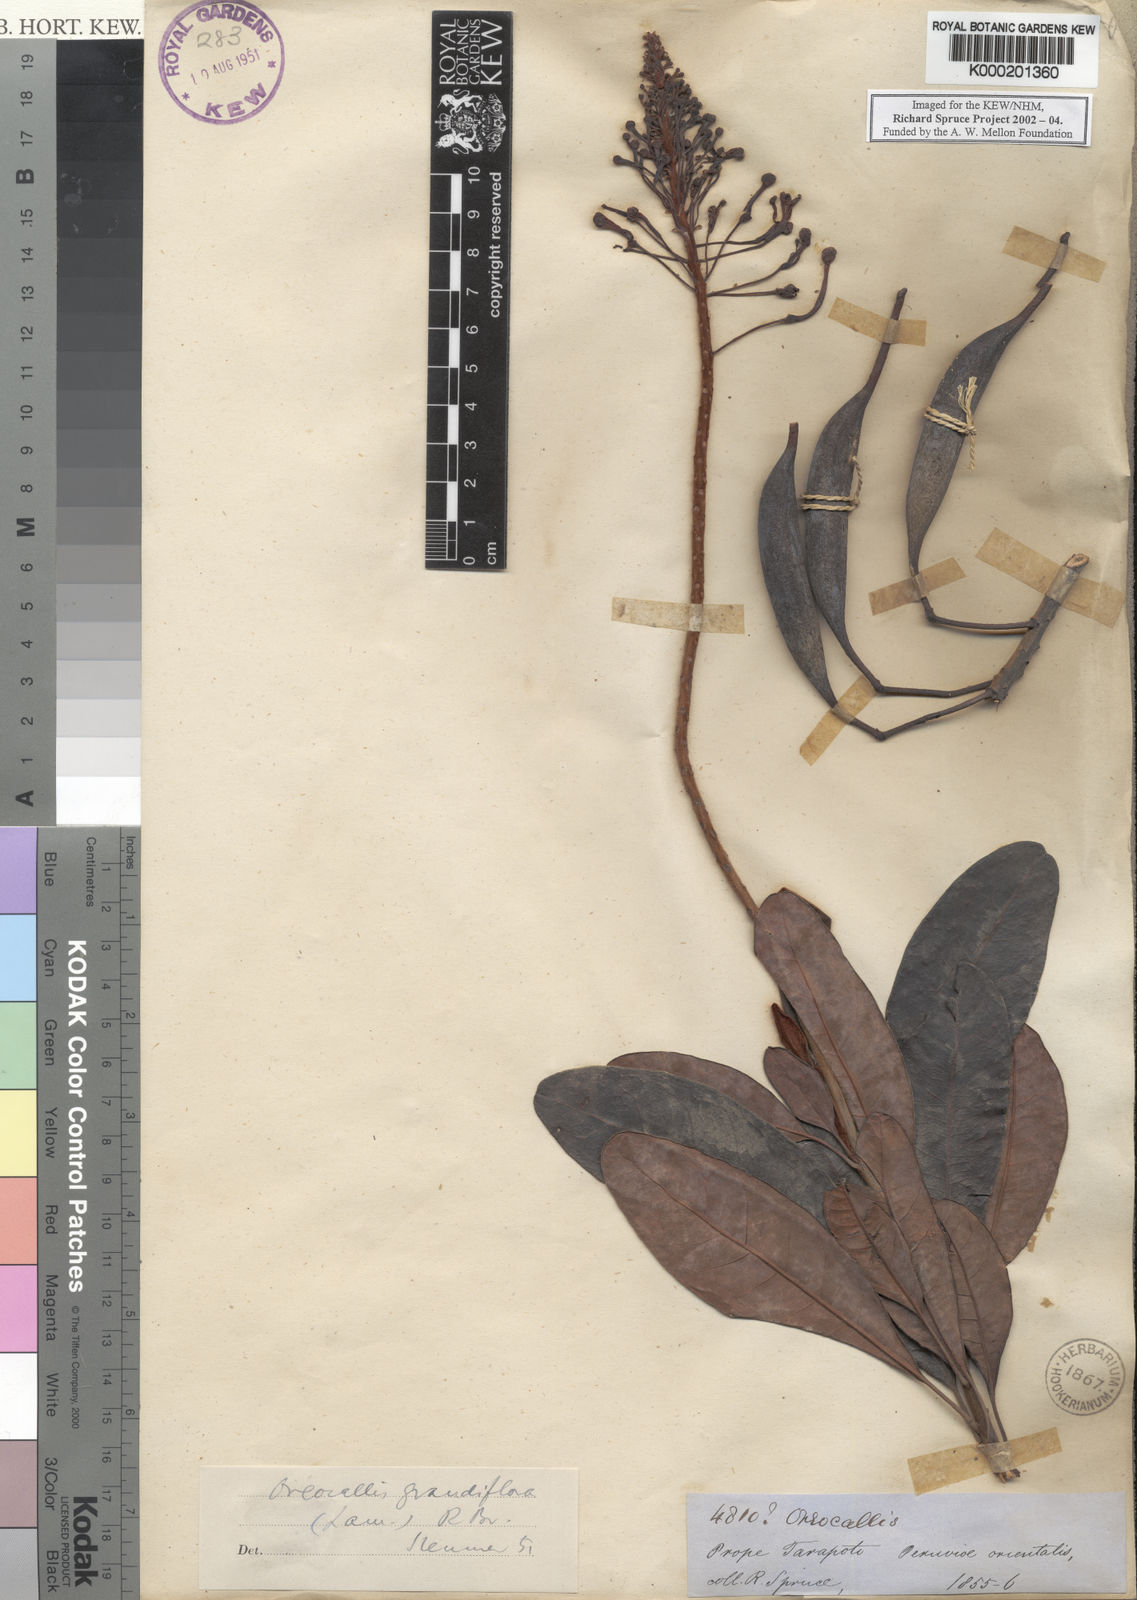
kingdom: Plantae
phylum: Tracheophyta
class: Magnoliopsida
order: Proteales
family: Proteaceae
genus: Oreocallis
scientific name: Oreocallis grandiflora
